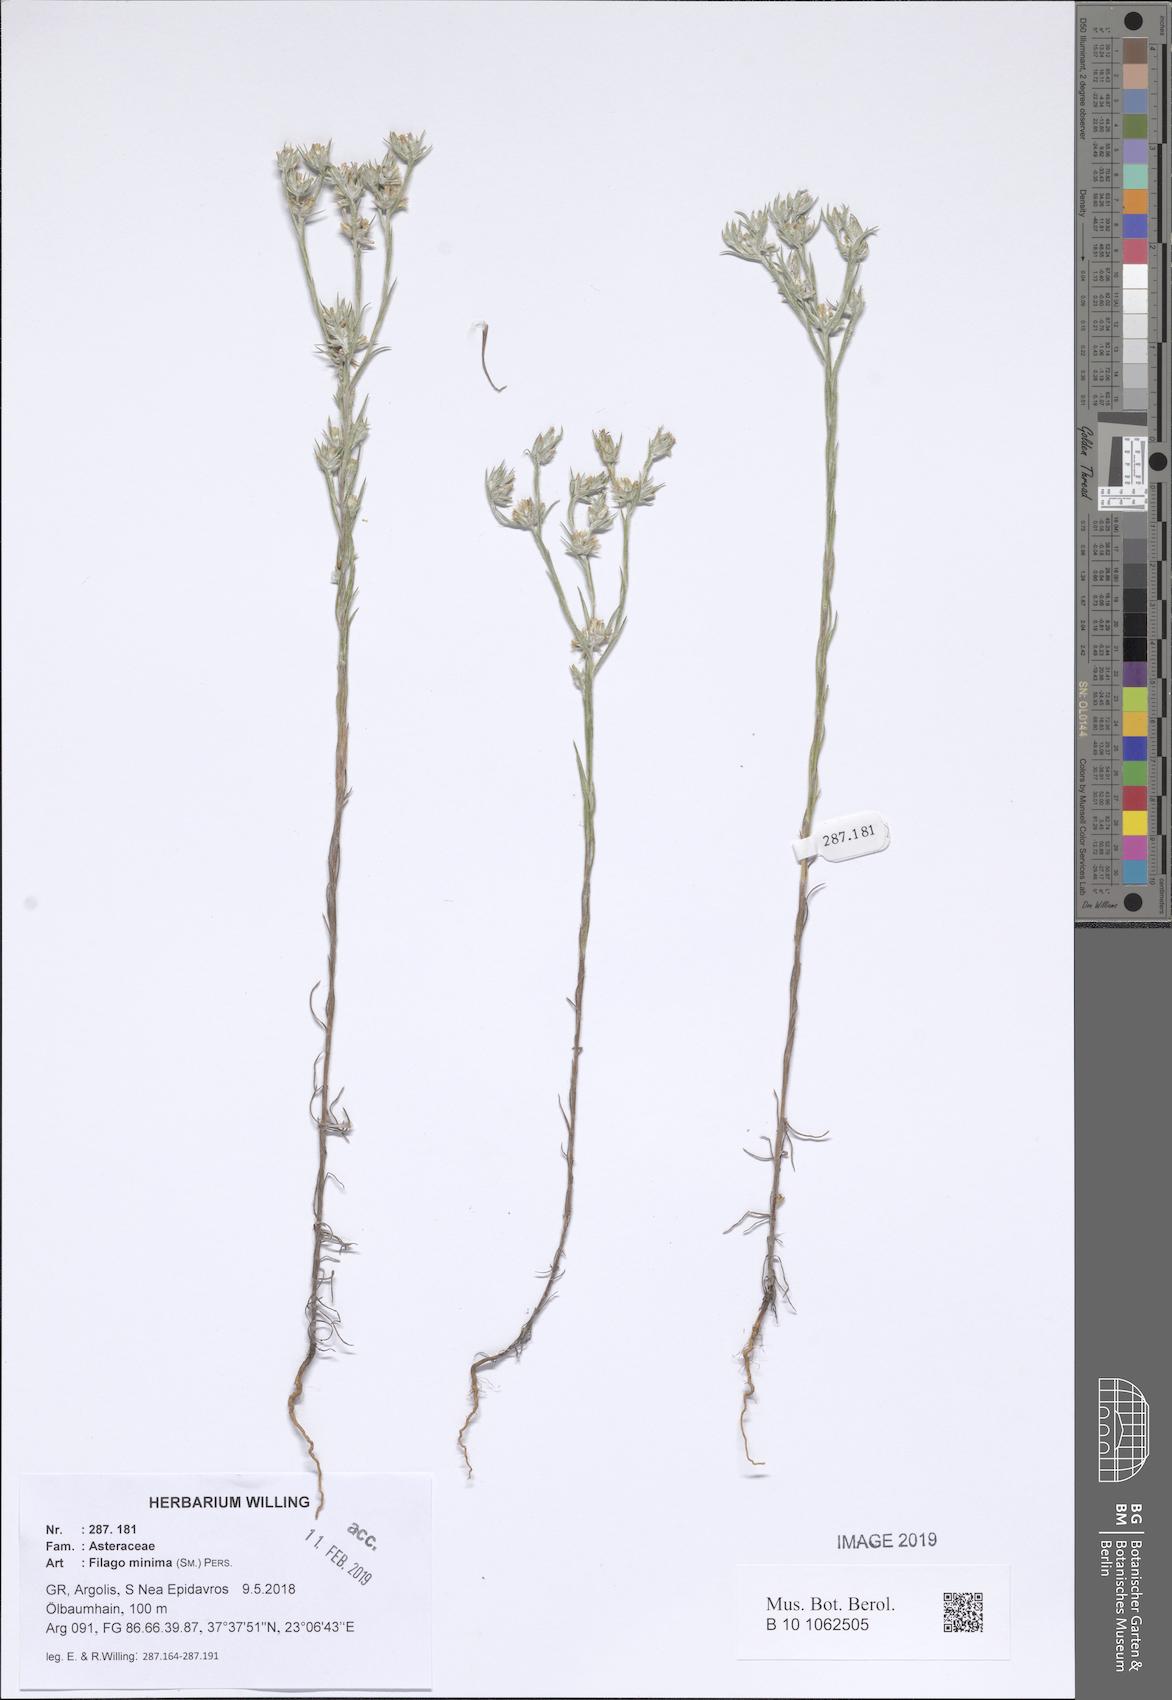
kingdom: Plantae
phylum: Tracheophyta
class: Magnoliopsida
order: Asterales
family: Asteraceae
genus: Logfia
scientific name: Logfia minima
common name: Little cottonrose
